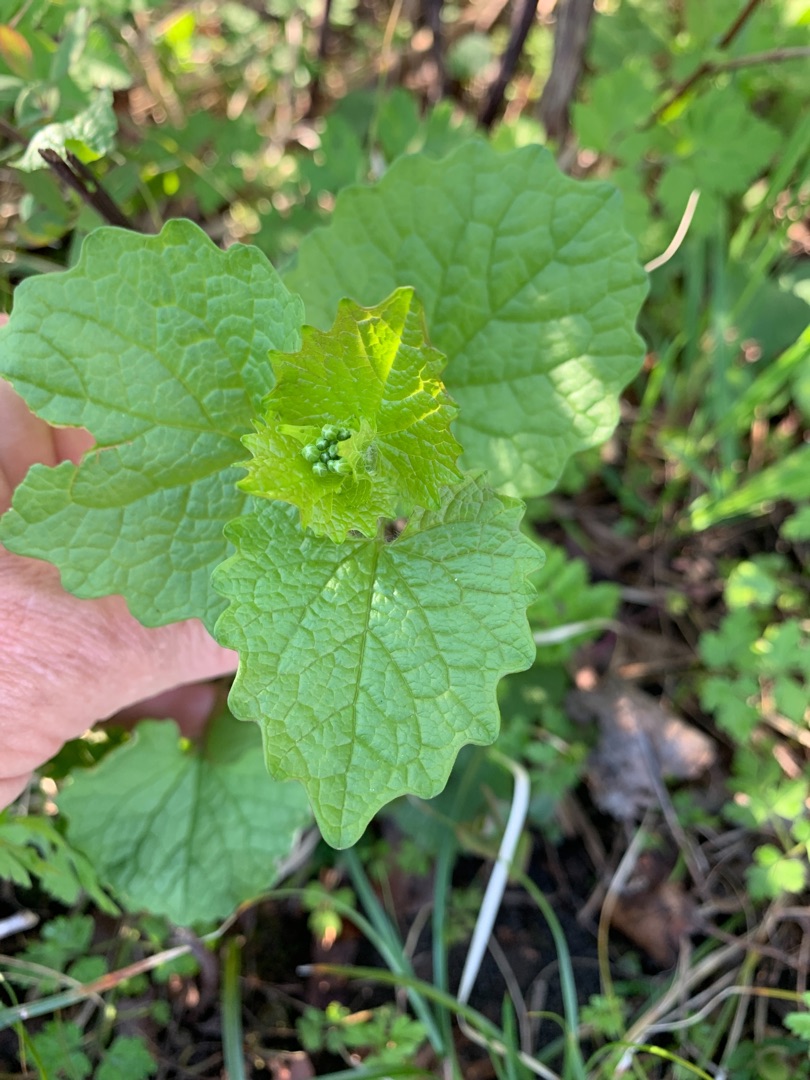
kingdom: Plantae
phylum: Tracheophyta
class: Magnoliopsida
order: Brassicales
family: Brassicaceae
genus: Alliaria
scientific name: Alliaria petiolata
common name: Løgkarse
